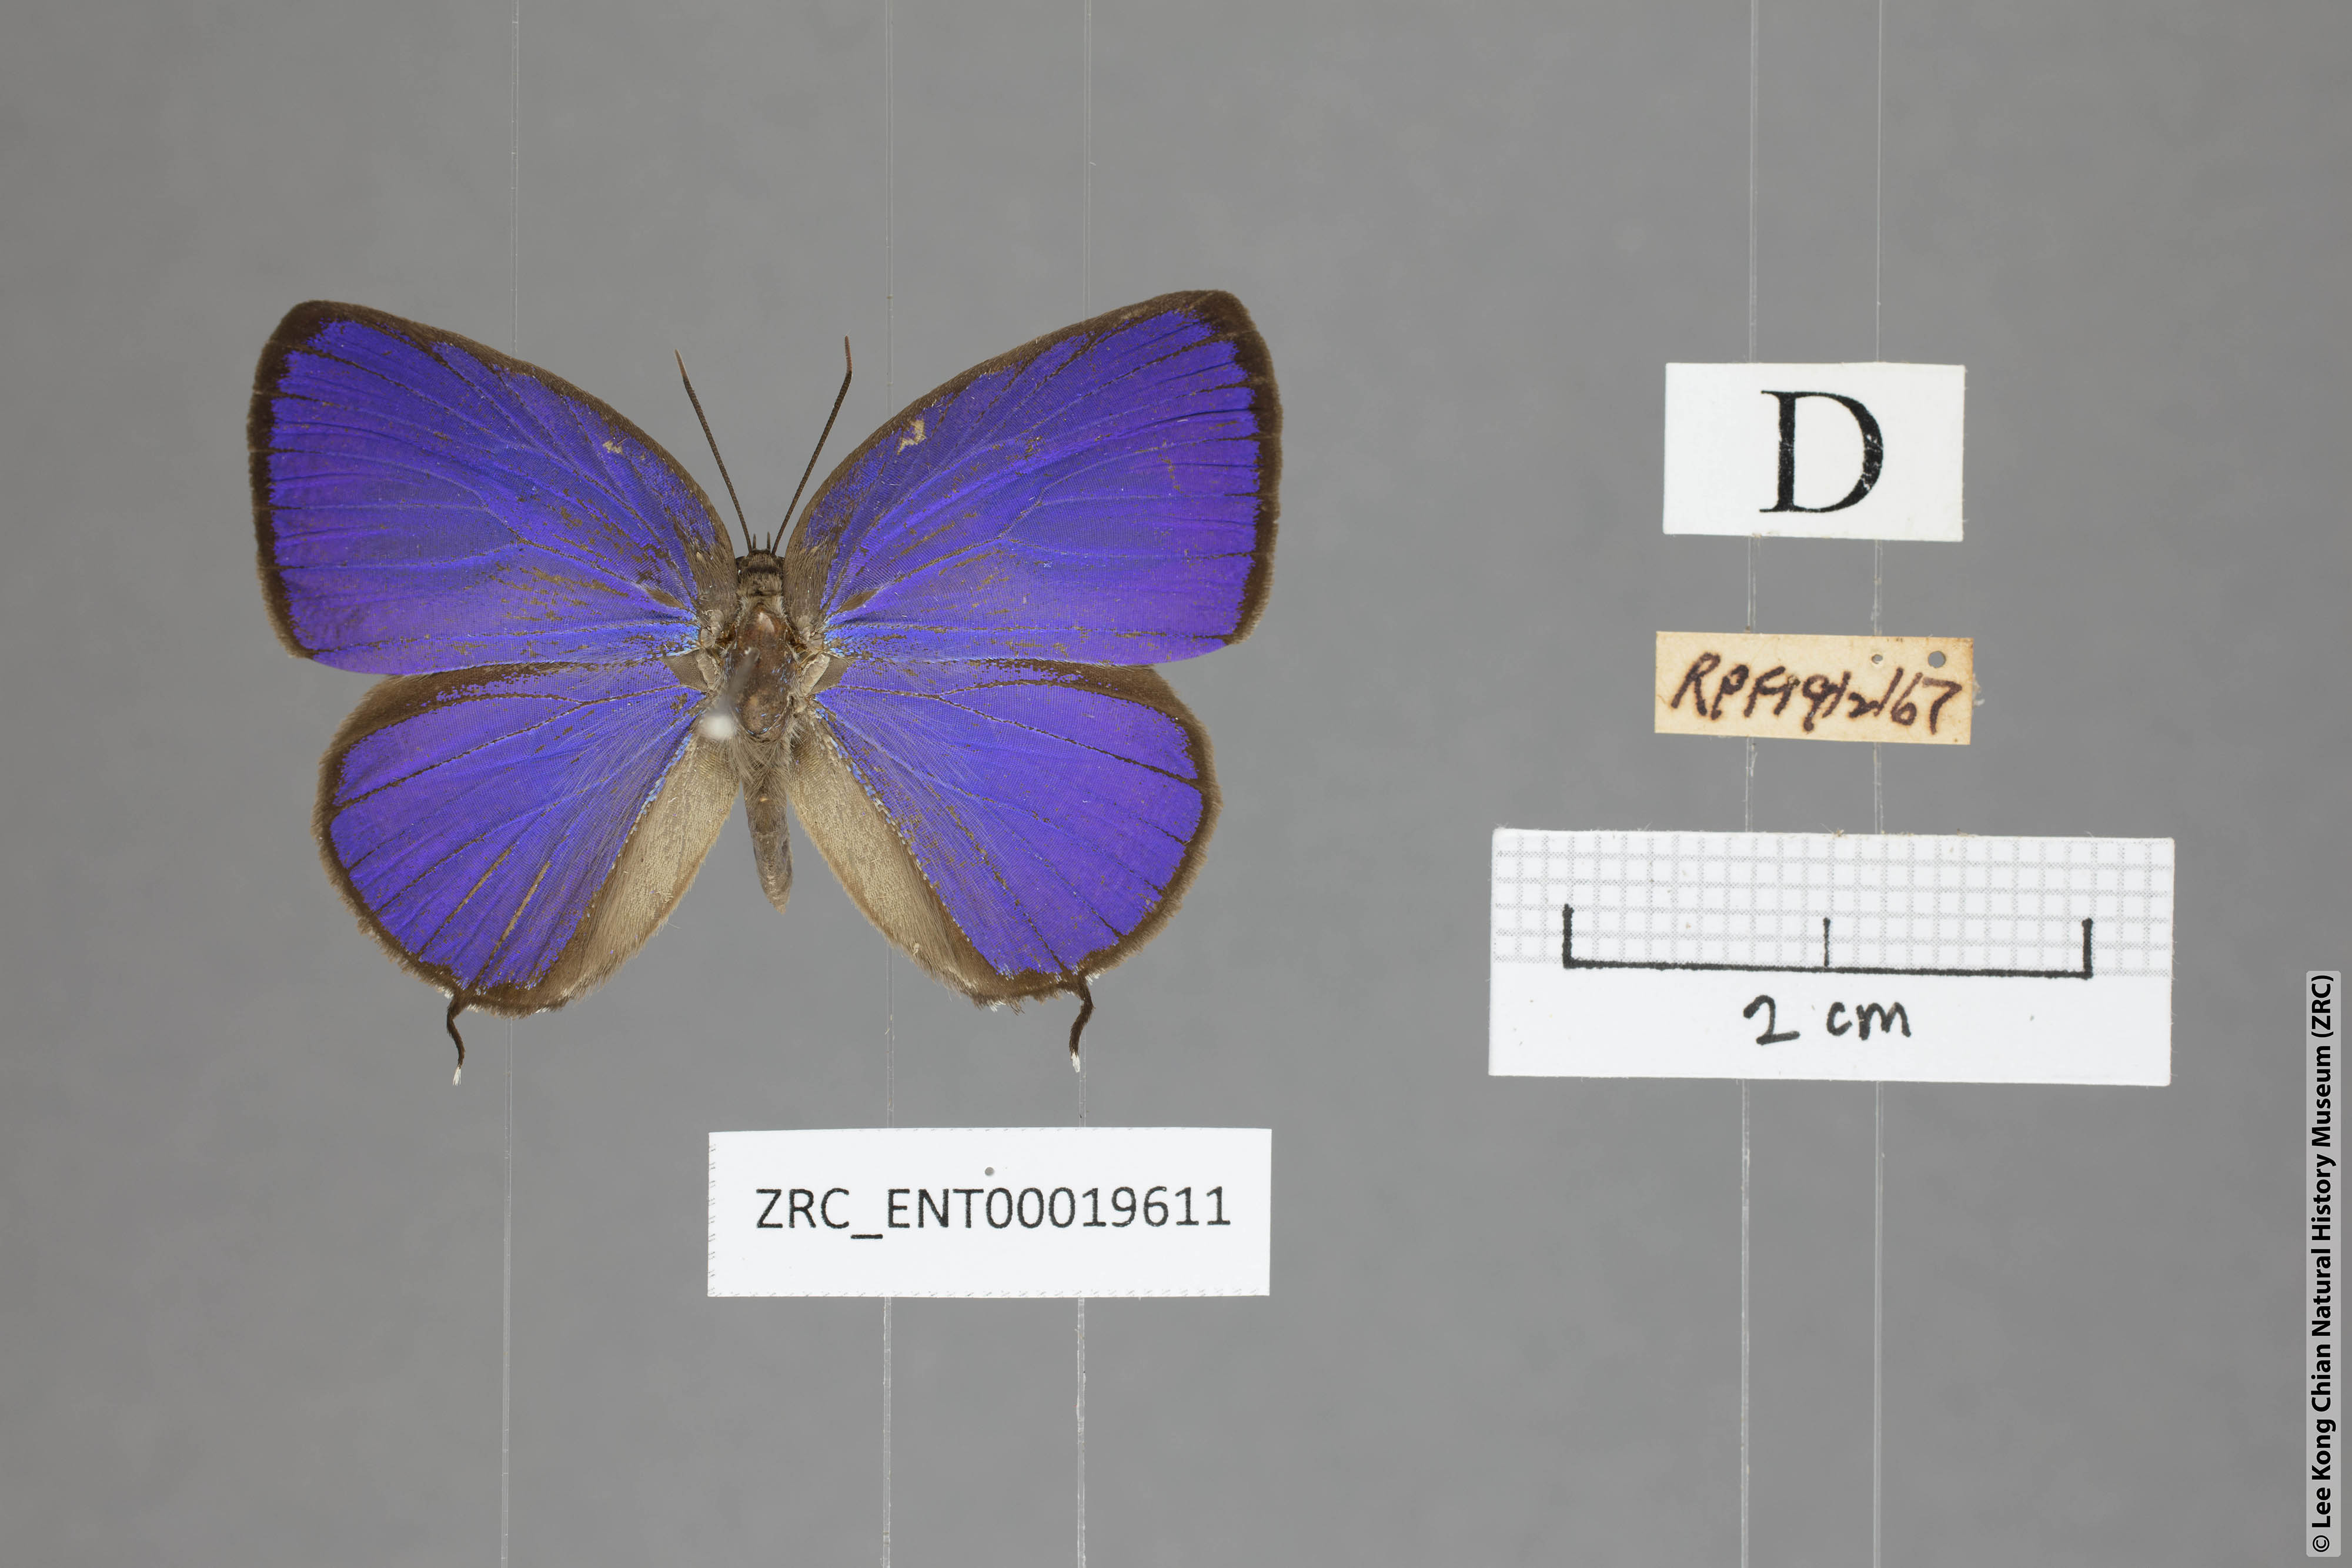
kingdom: Animalia
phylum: Arthropoda
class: Insecta
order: Lepidoptera
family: Lycaenidae
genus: Arhopala
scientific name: Arhopala atosia
